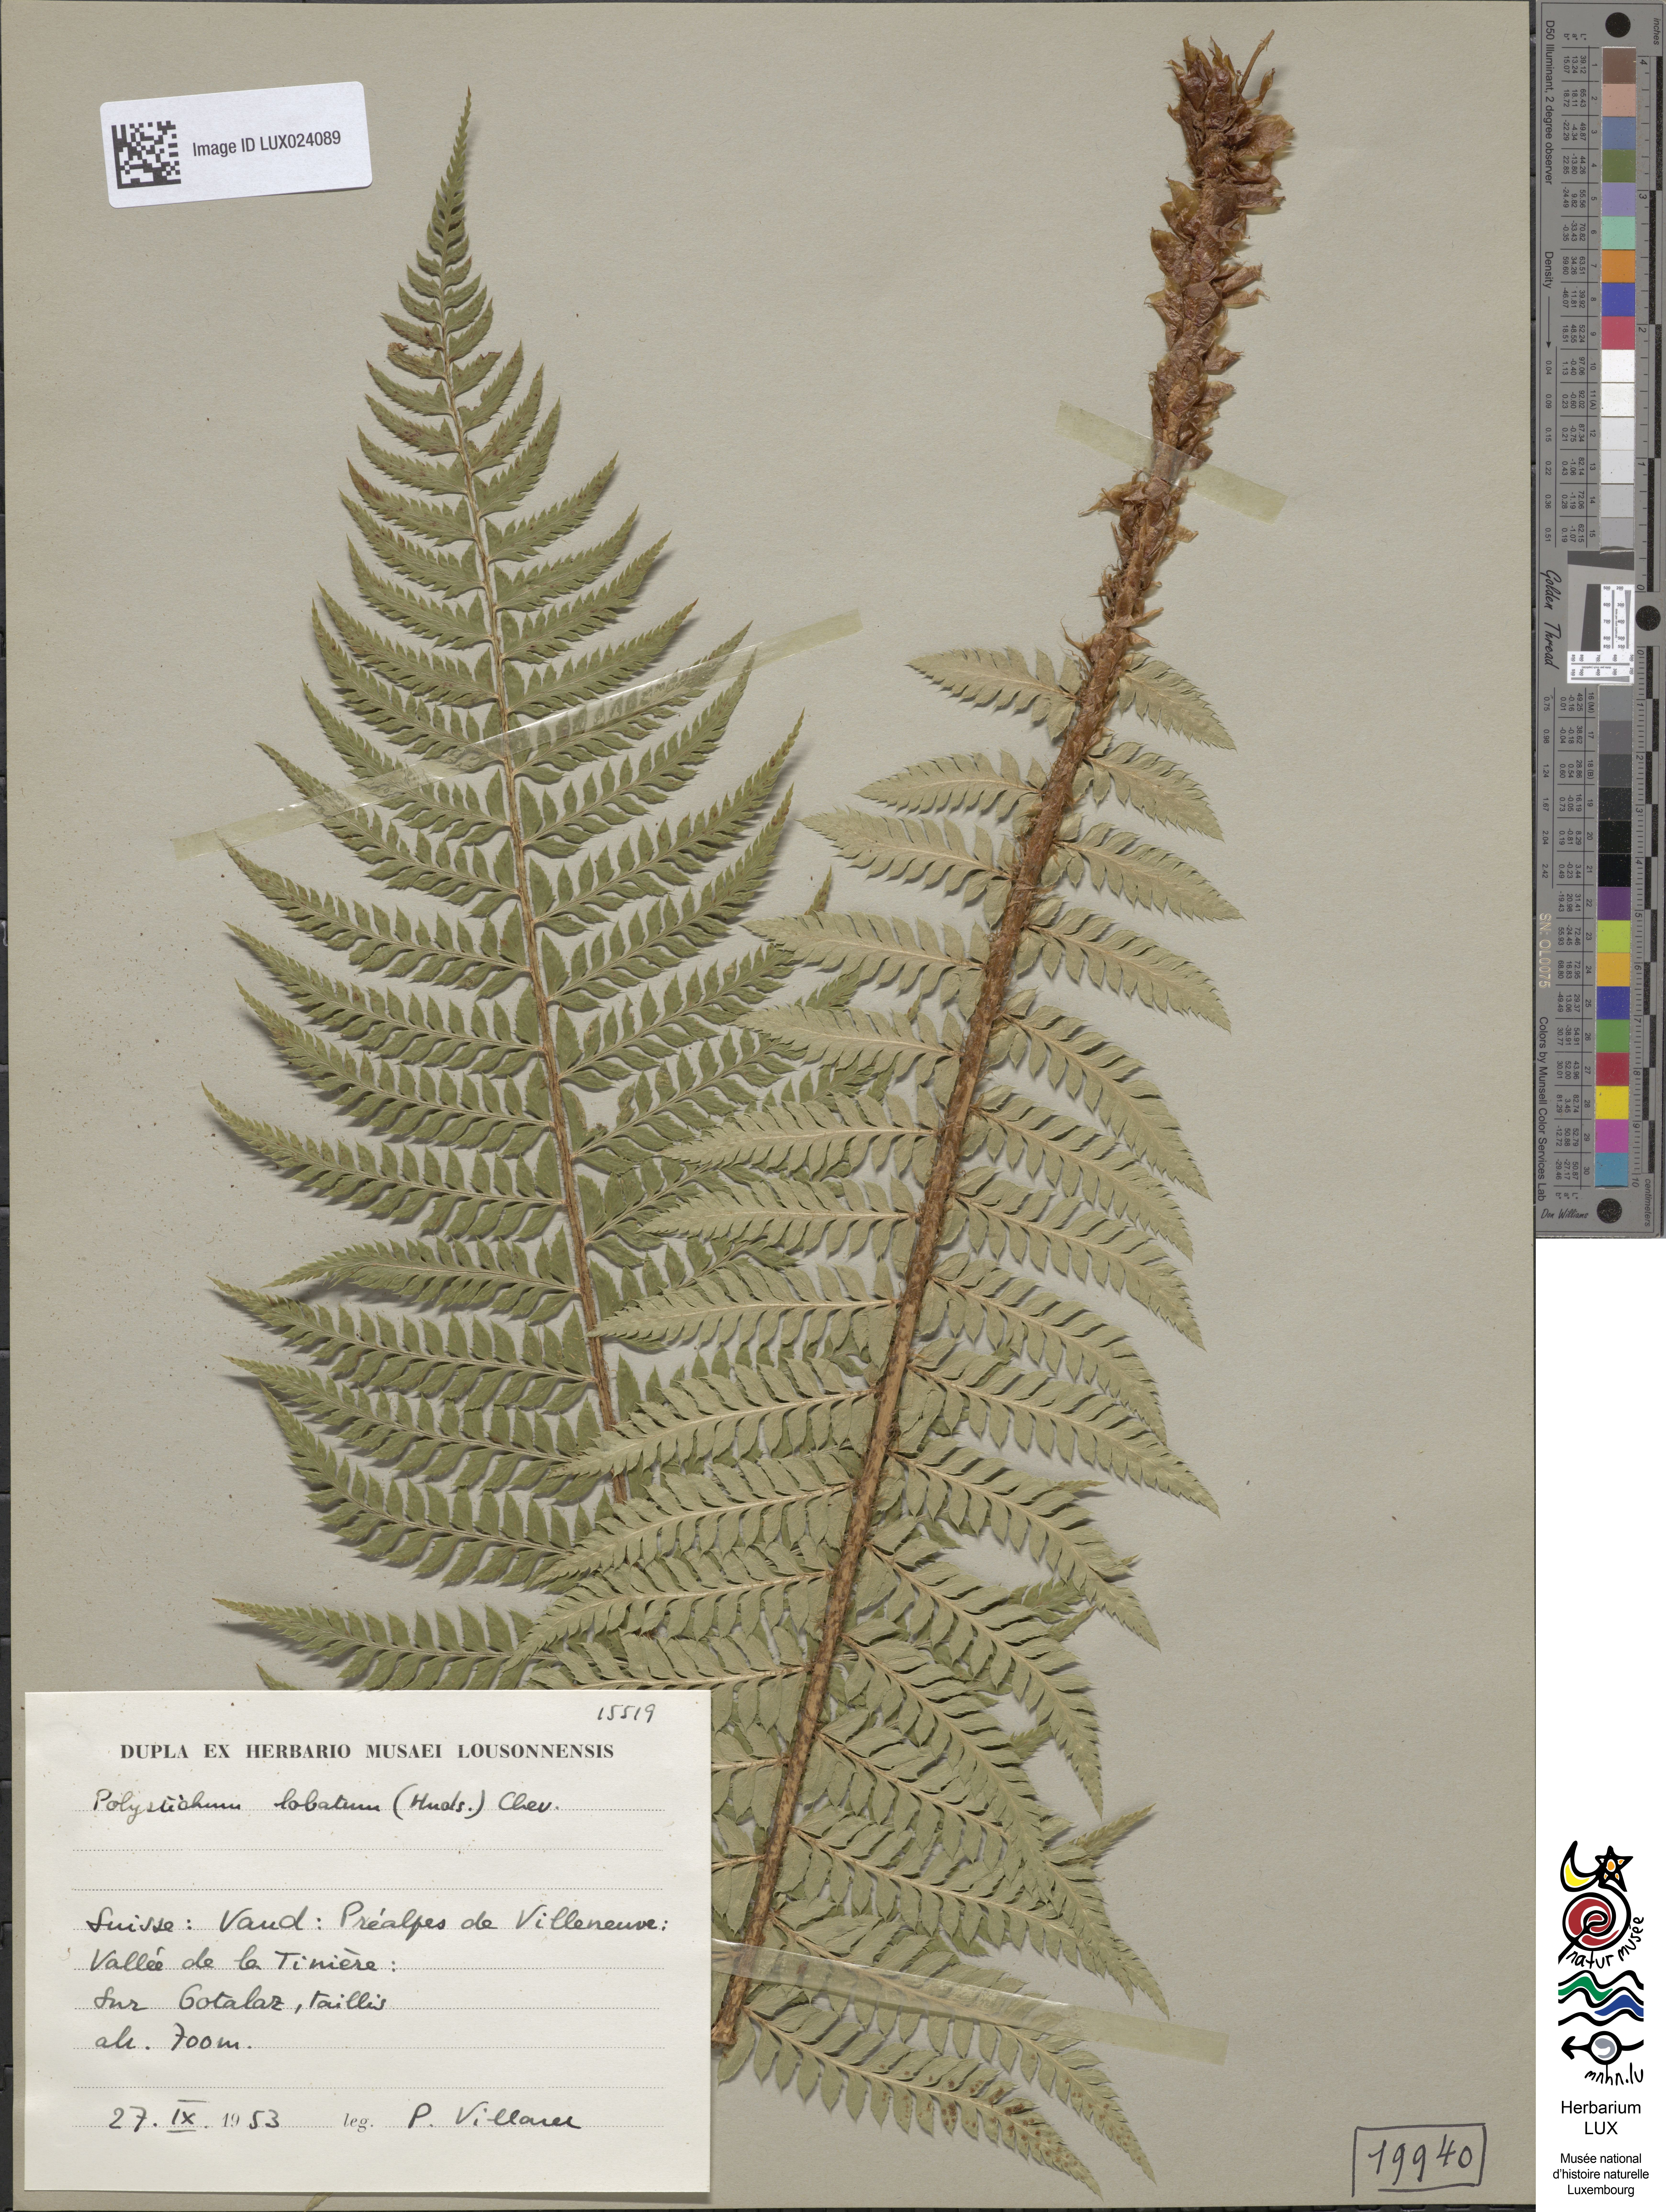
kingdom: Plantae
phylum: Tracheophyta
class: Polypodiopsida
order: Polypodiales
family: Dryopteridaceae
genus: Polystichum
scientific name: Polystichum aculeatum
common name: Hard shield-fern
